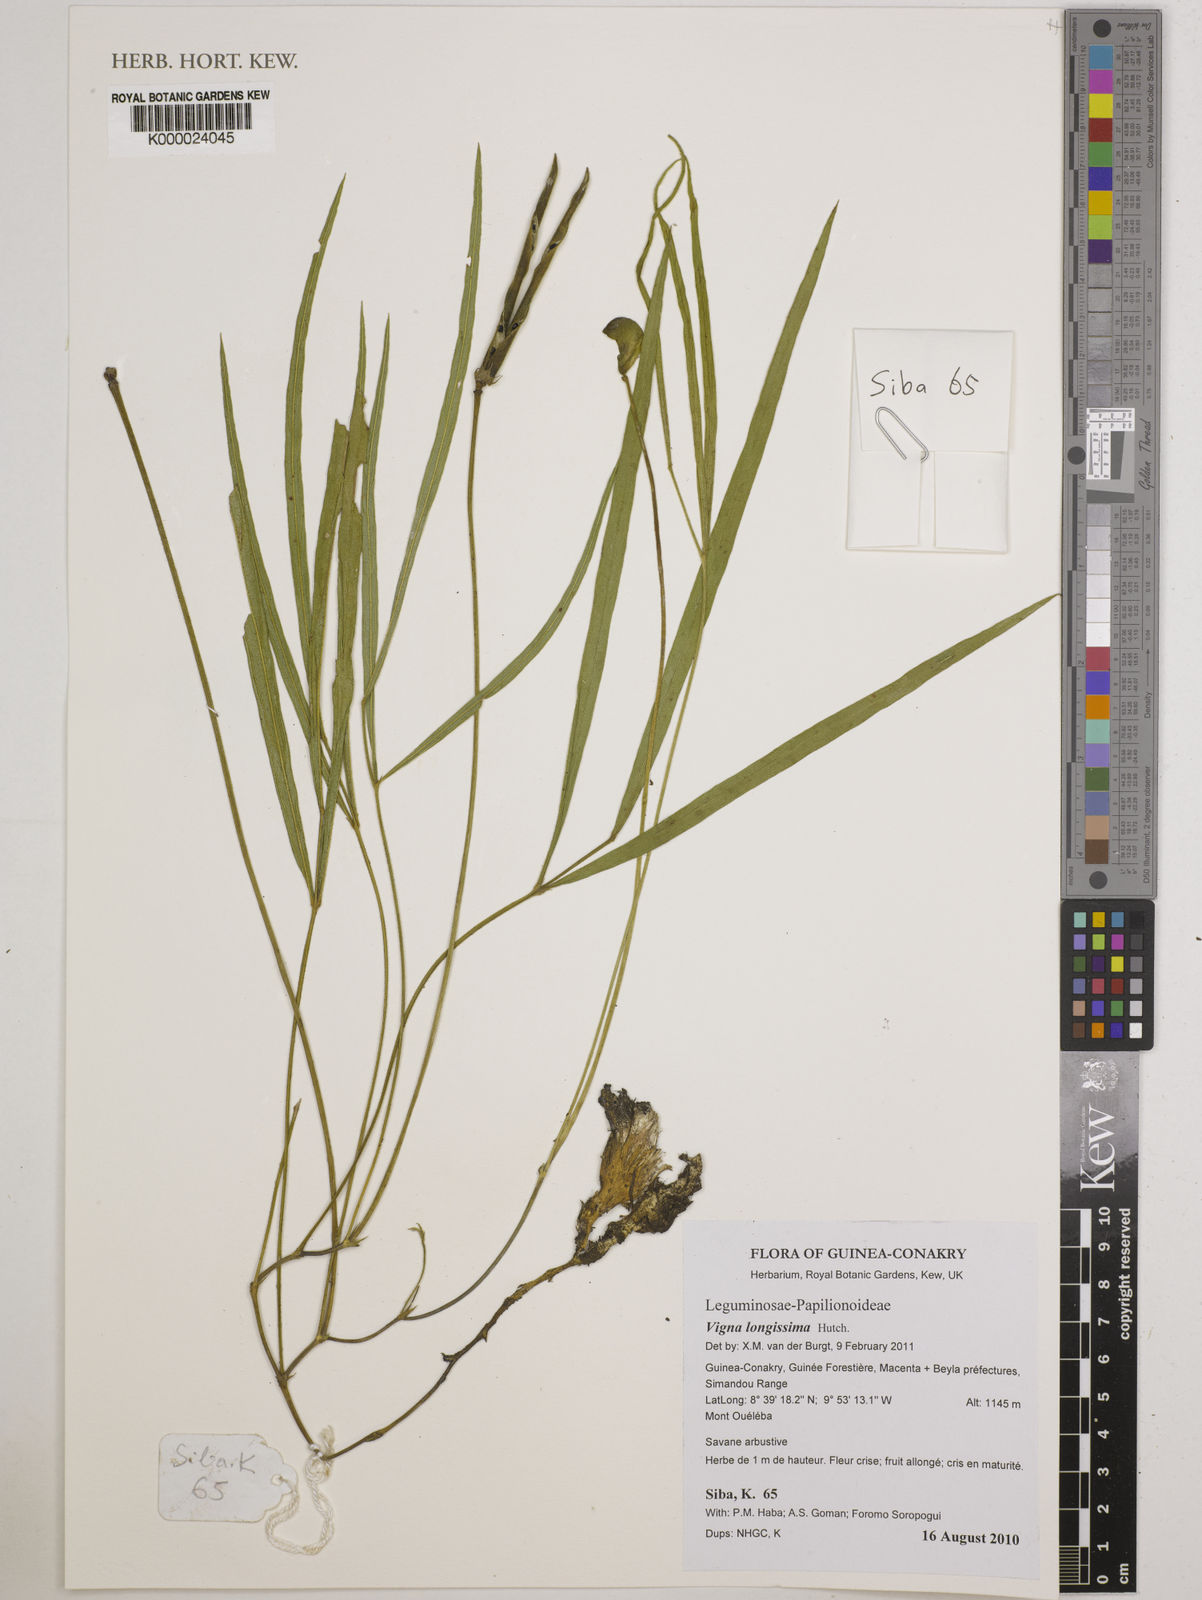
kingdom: Plantae
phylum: Tracheophyta
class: Magnoliopsida
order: Fabales
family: Fabaceae
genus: Vigna
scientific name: Vigna longissima
